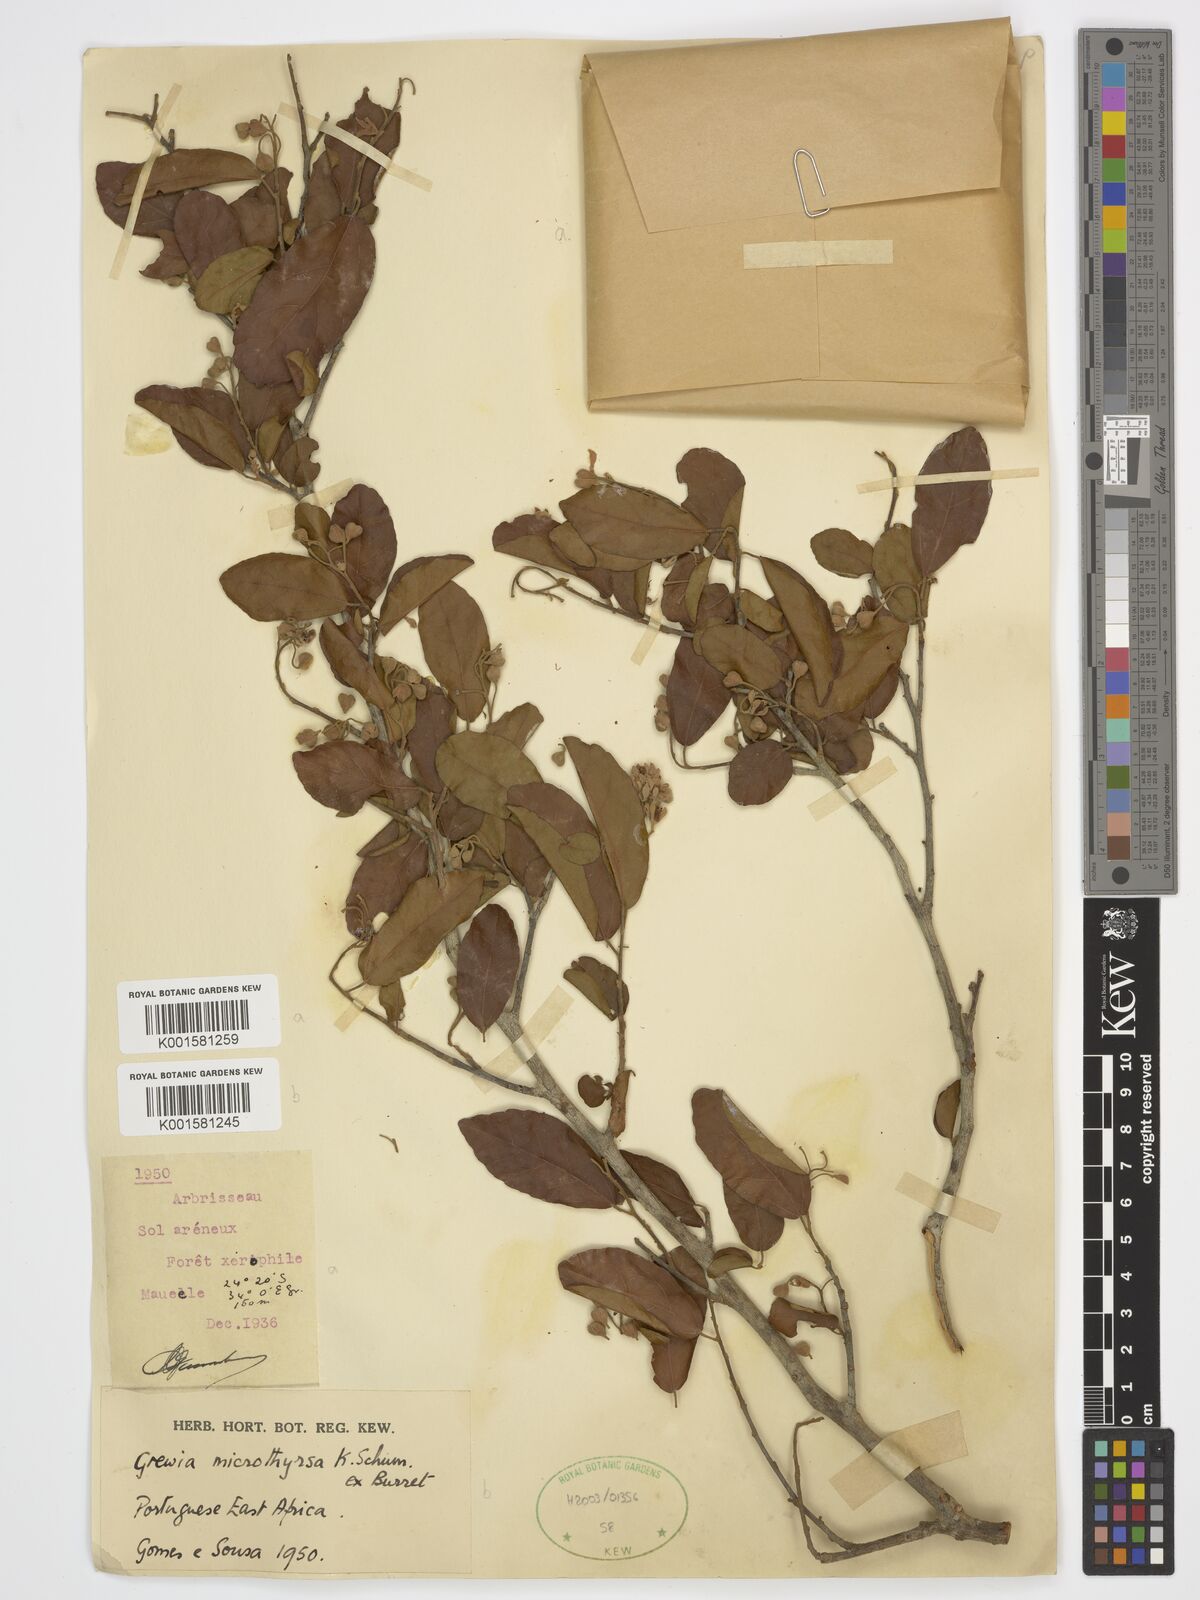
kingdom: Plantae
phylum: Tracheophyta
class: Magnoliopsida
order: Malvales
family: Malvaceae
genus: Microcos
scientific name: Microcos microthyrsa
